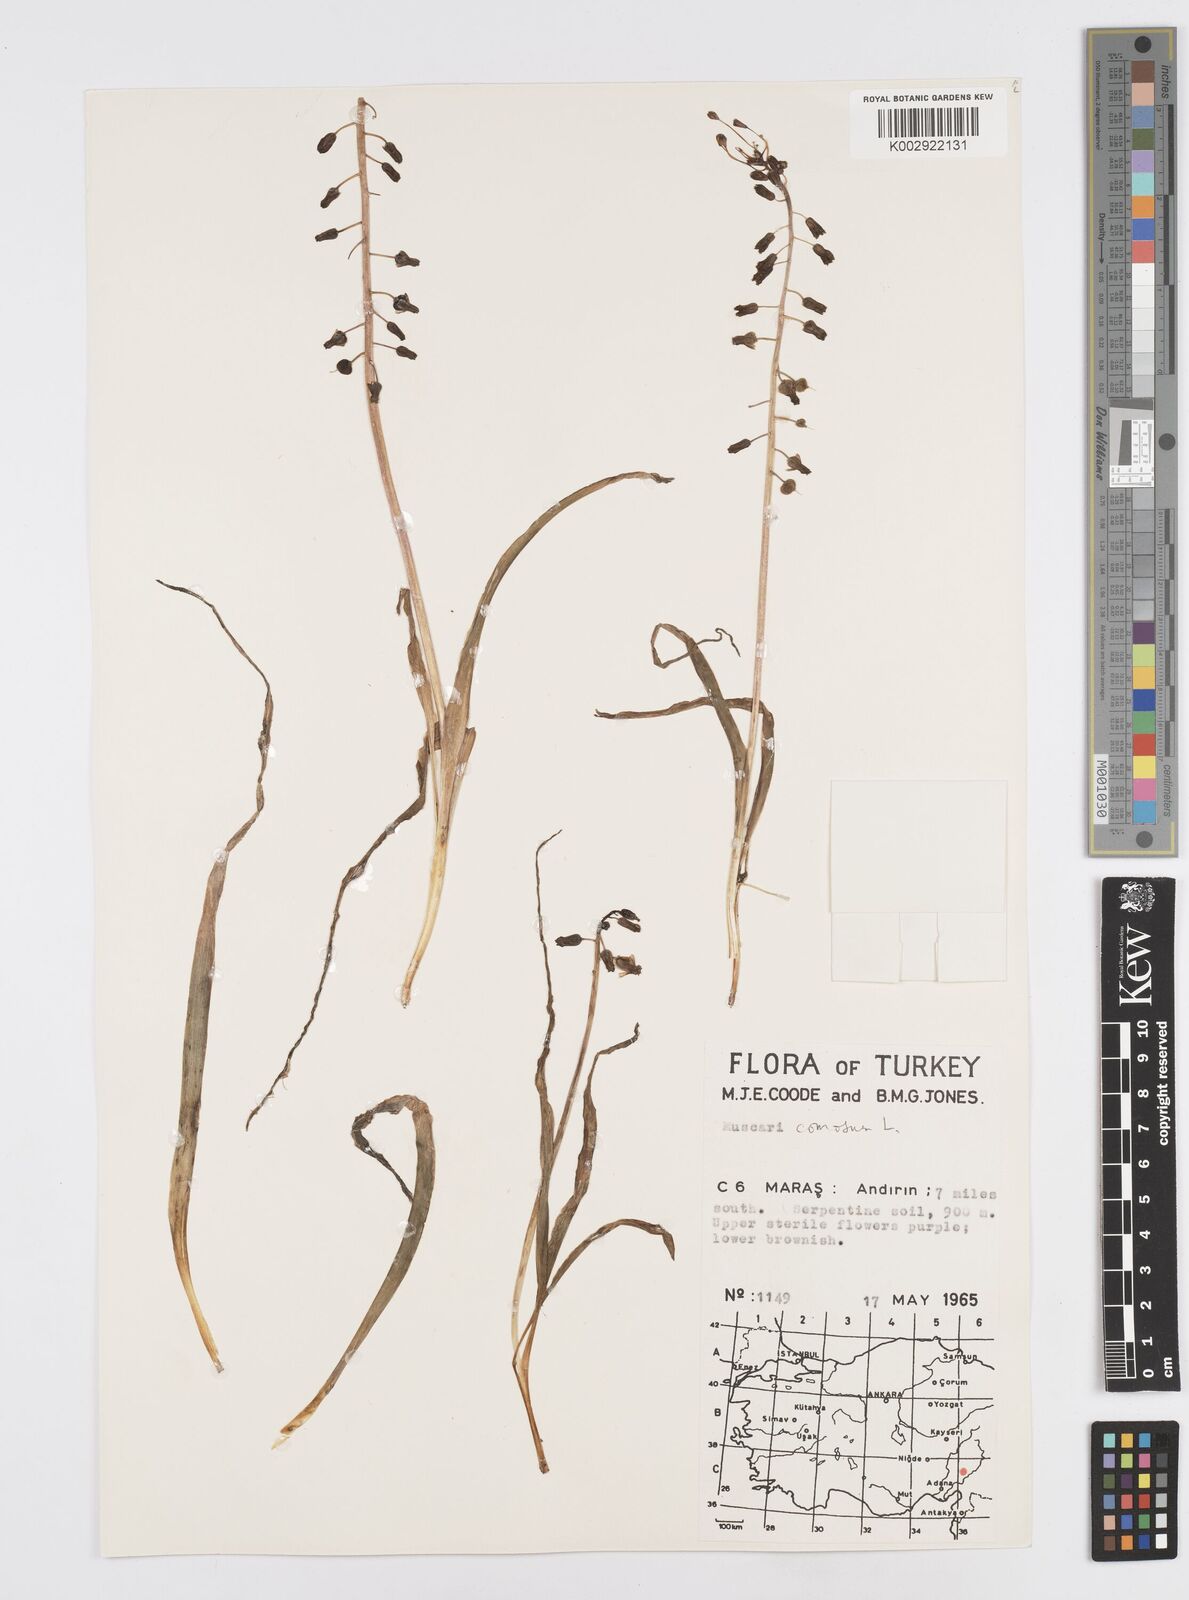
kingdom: Plantae
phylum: Tracheophyta
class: Liliopsida
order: Asparagales
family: Asparagaceae
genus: Muscari
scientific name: Muscari comosum
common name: Tassel hyacinth
